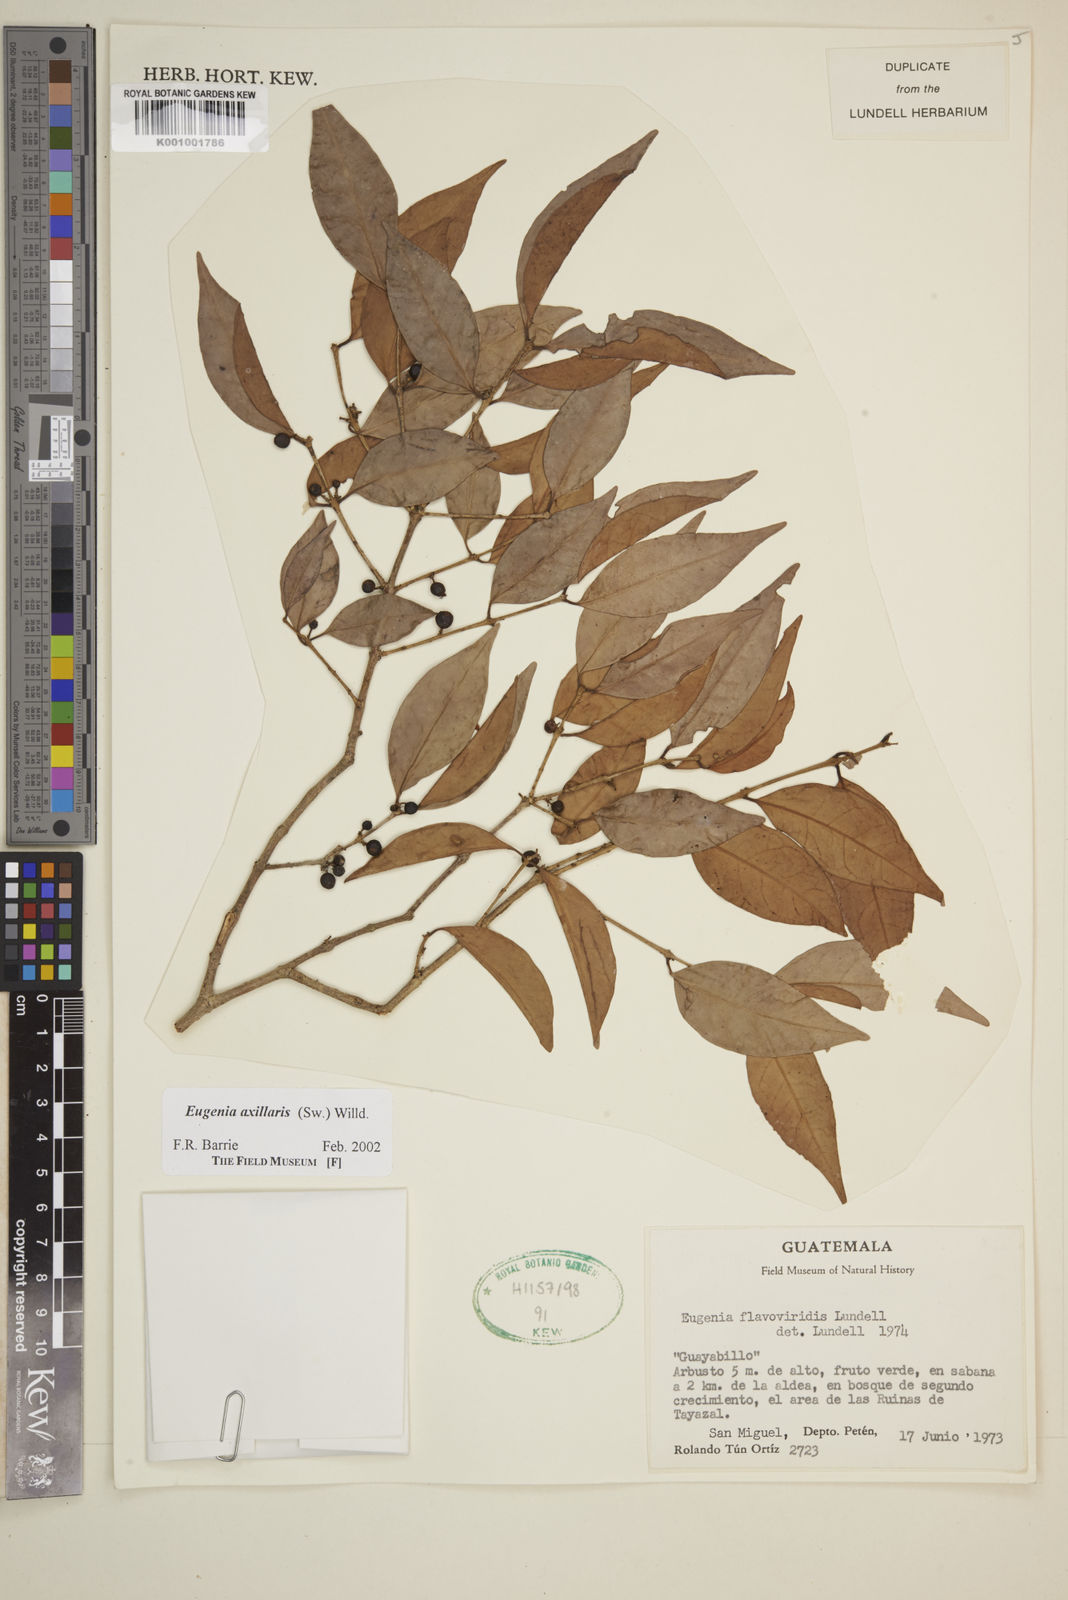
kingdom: Plantae
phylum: Tracheophyta
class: Magnoliopsida
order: Myrtales
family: Myrtaceae
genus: Eugenia
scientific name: Eugenia axillaris
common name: Choaky berry
